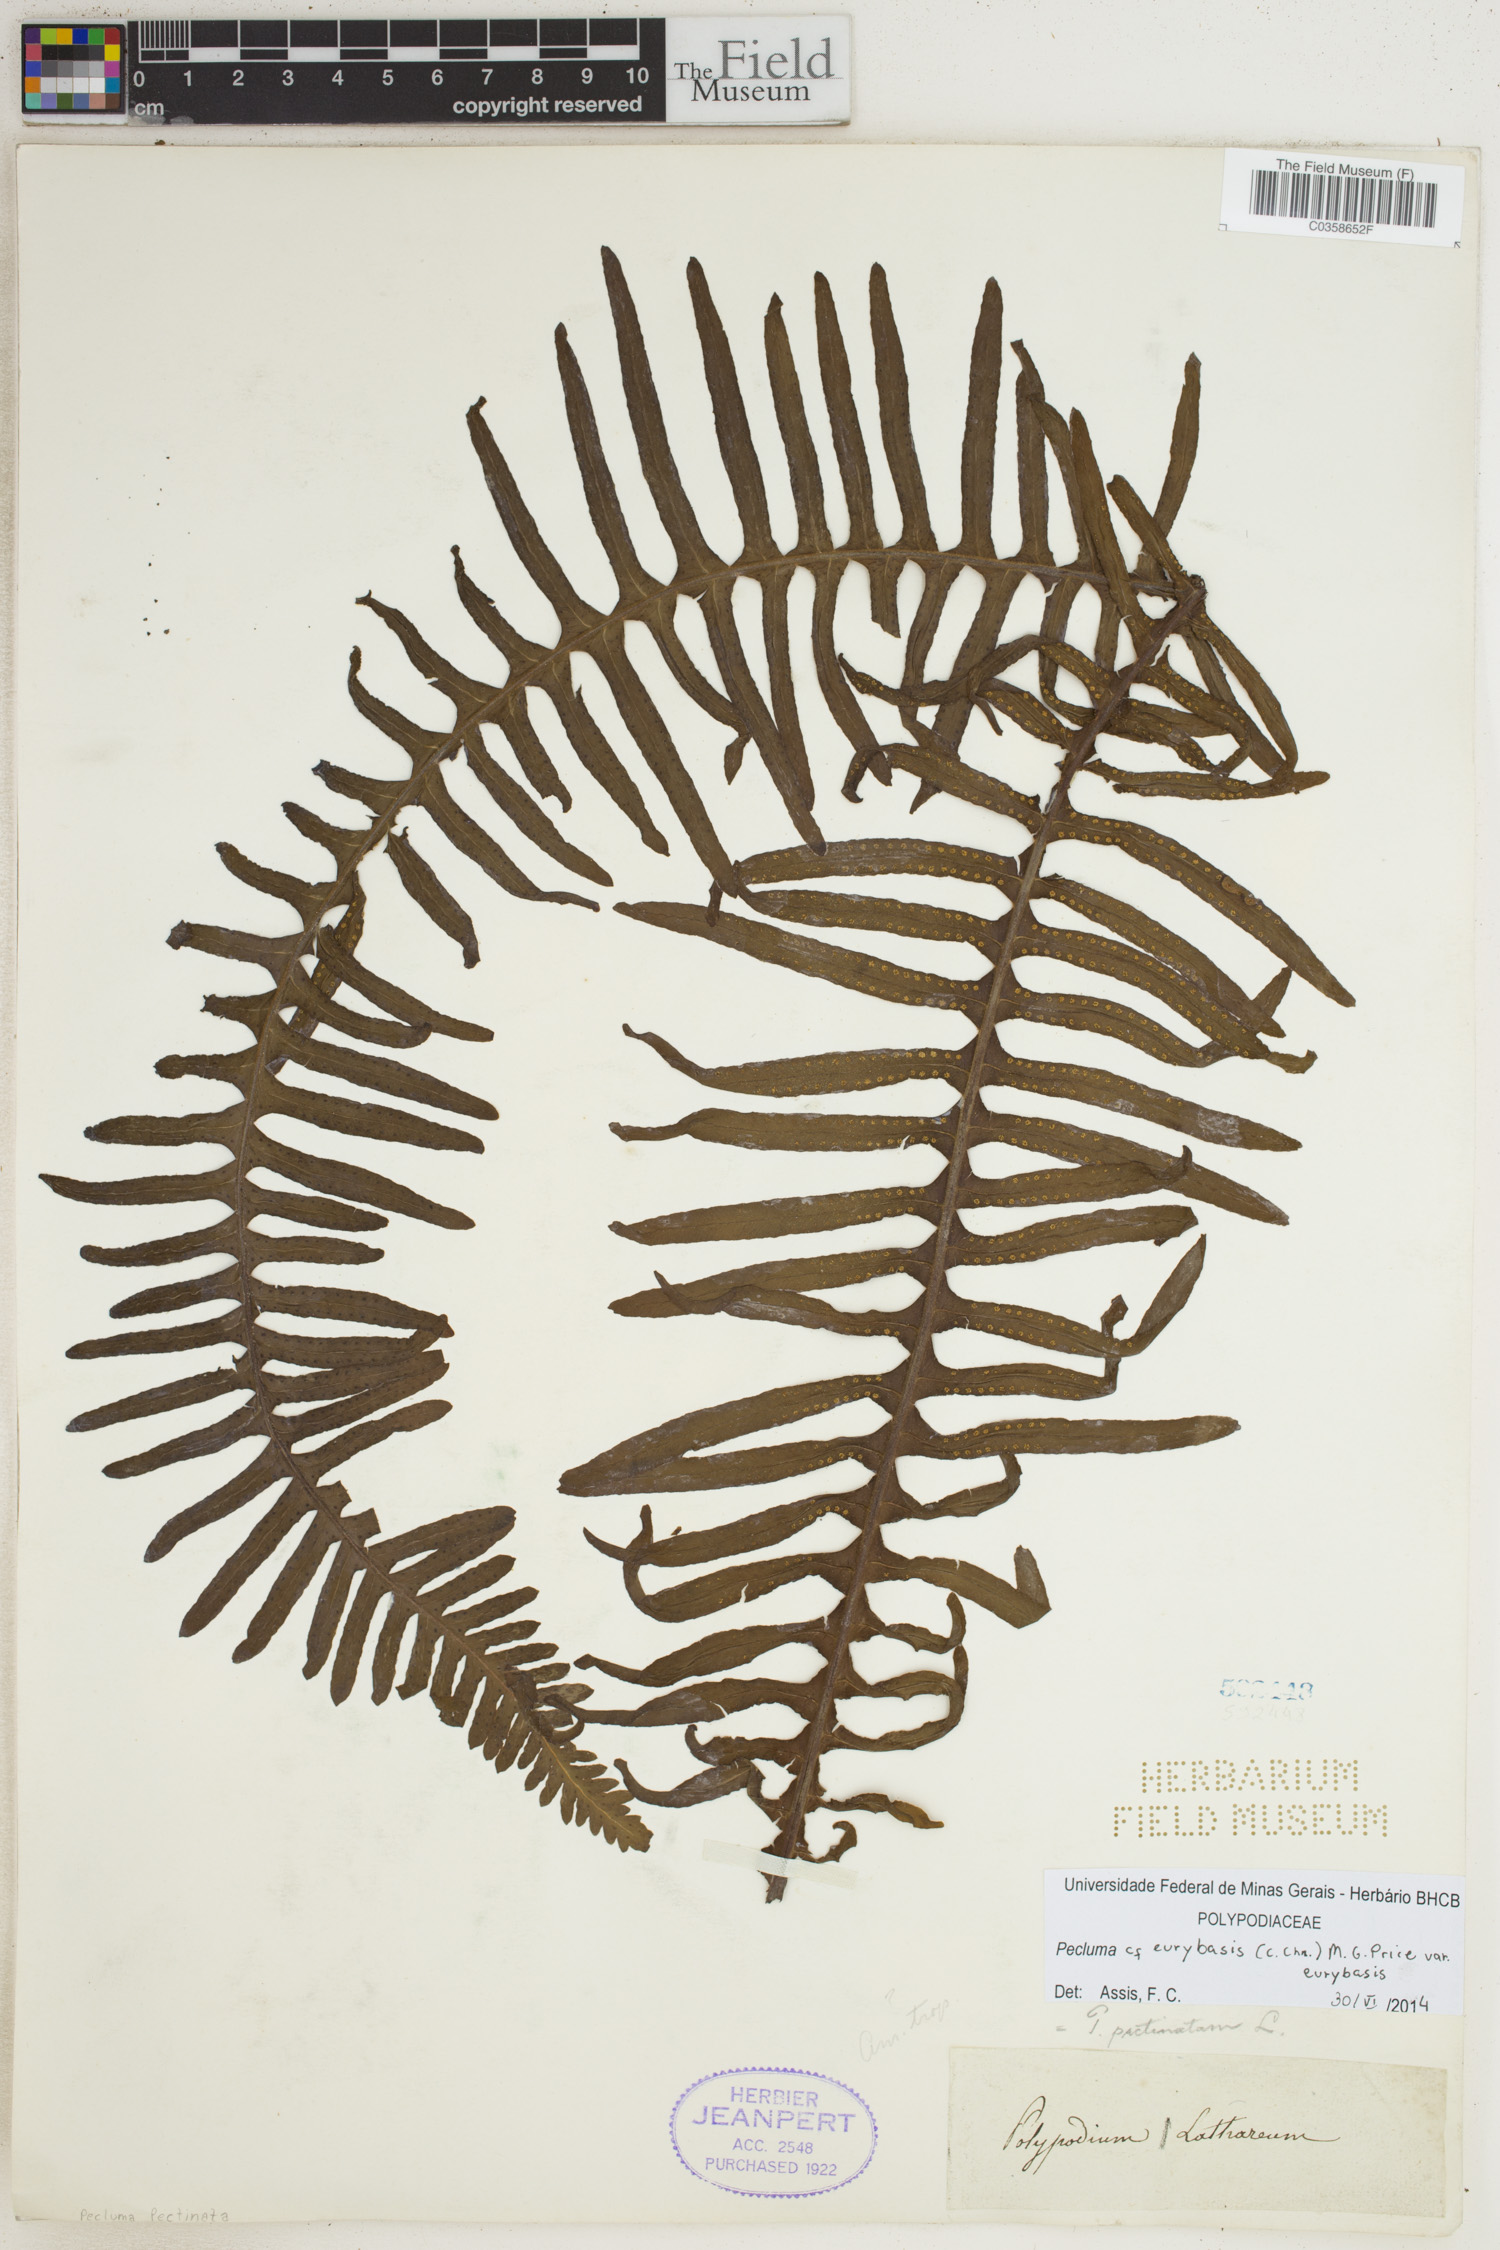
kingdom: Plantae
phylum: Tracheophyta
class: Polypodiopsida
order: Polypodiales
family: Polypodiaceae
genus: Pecluma
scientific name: Pecluma eurybasis
